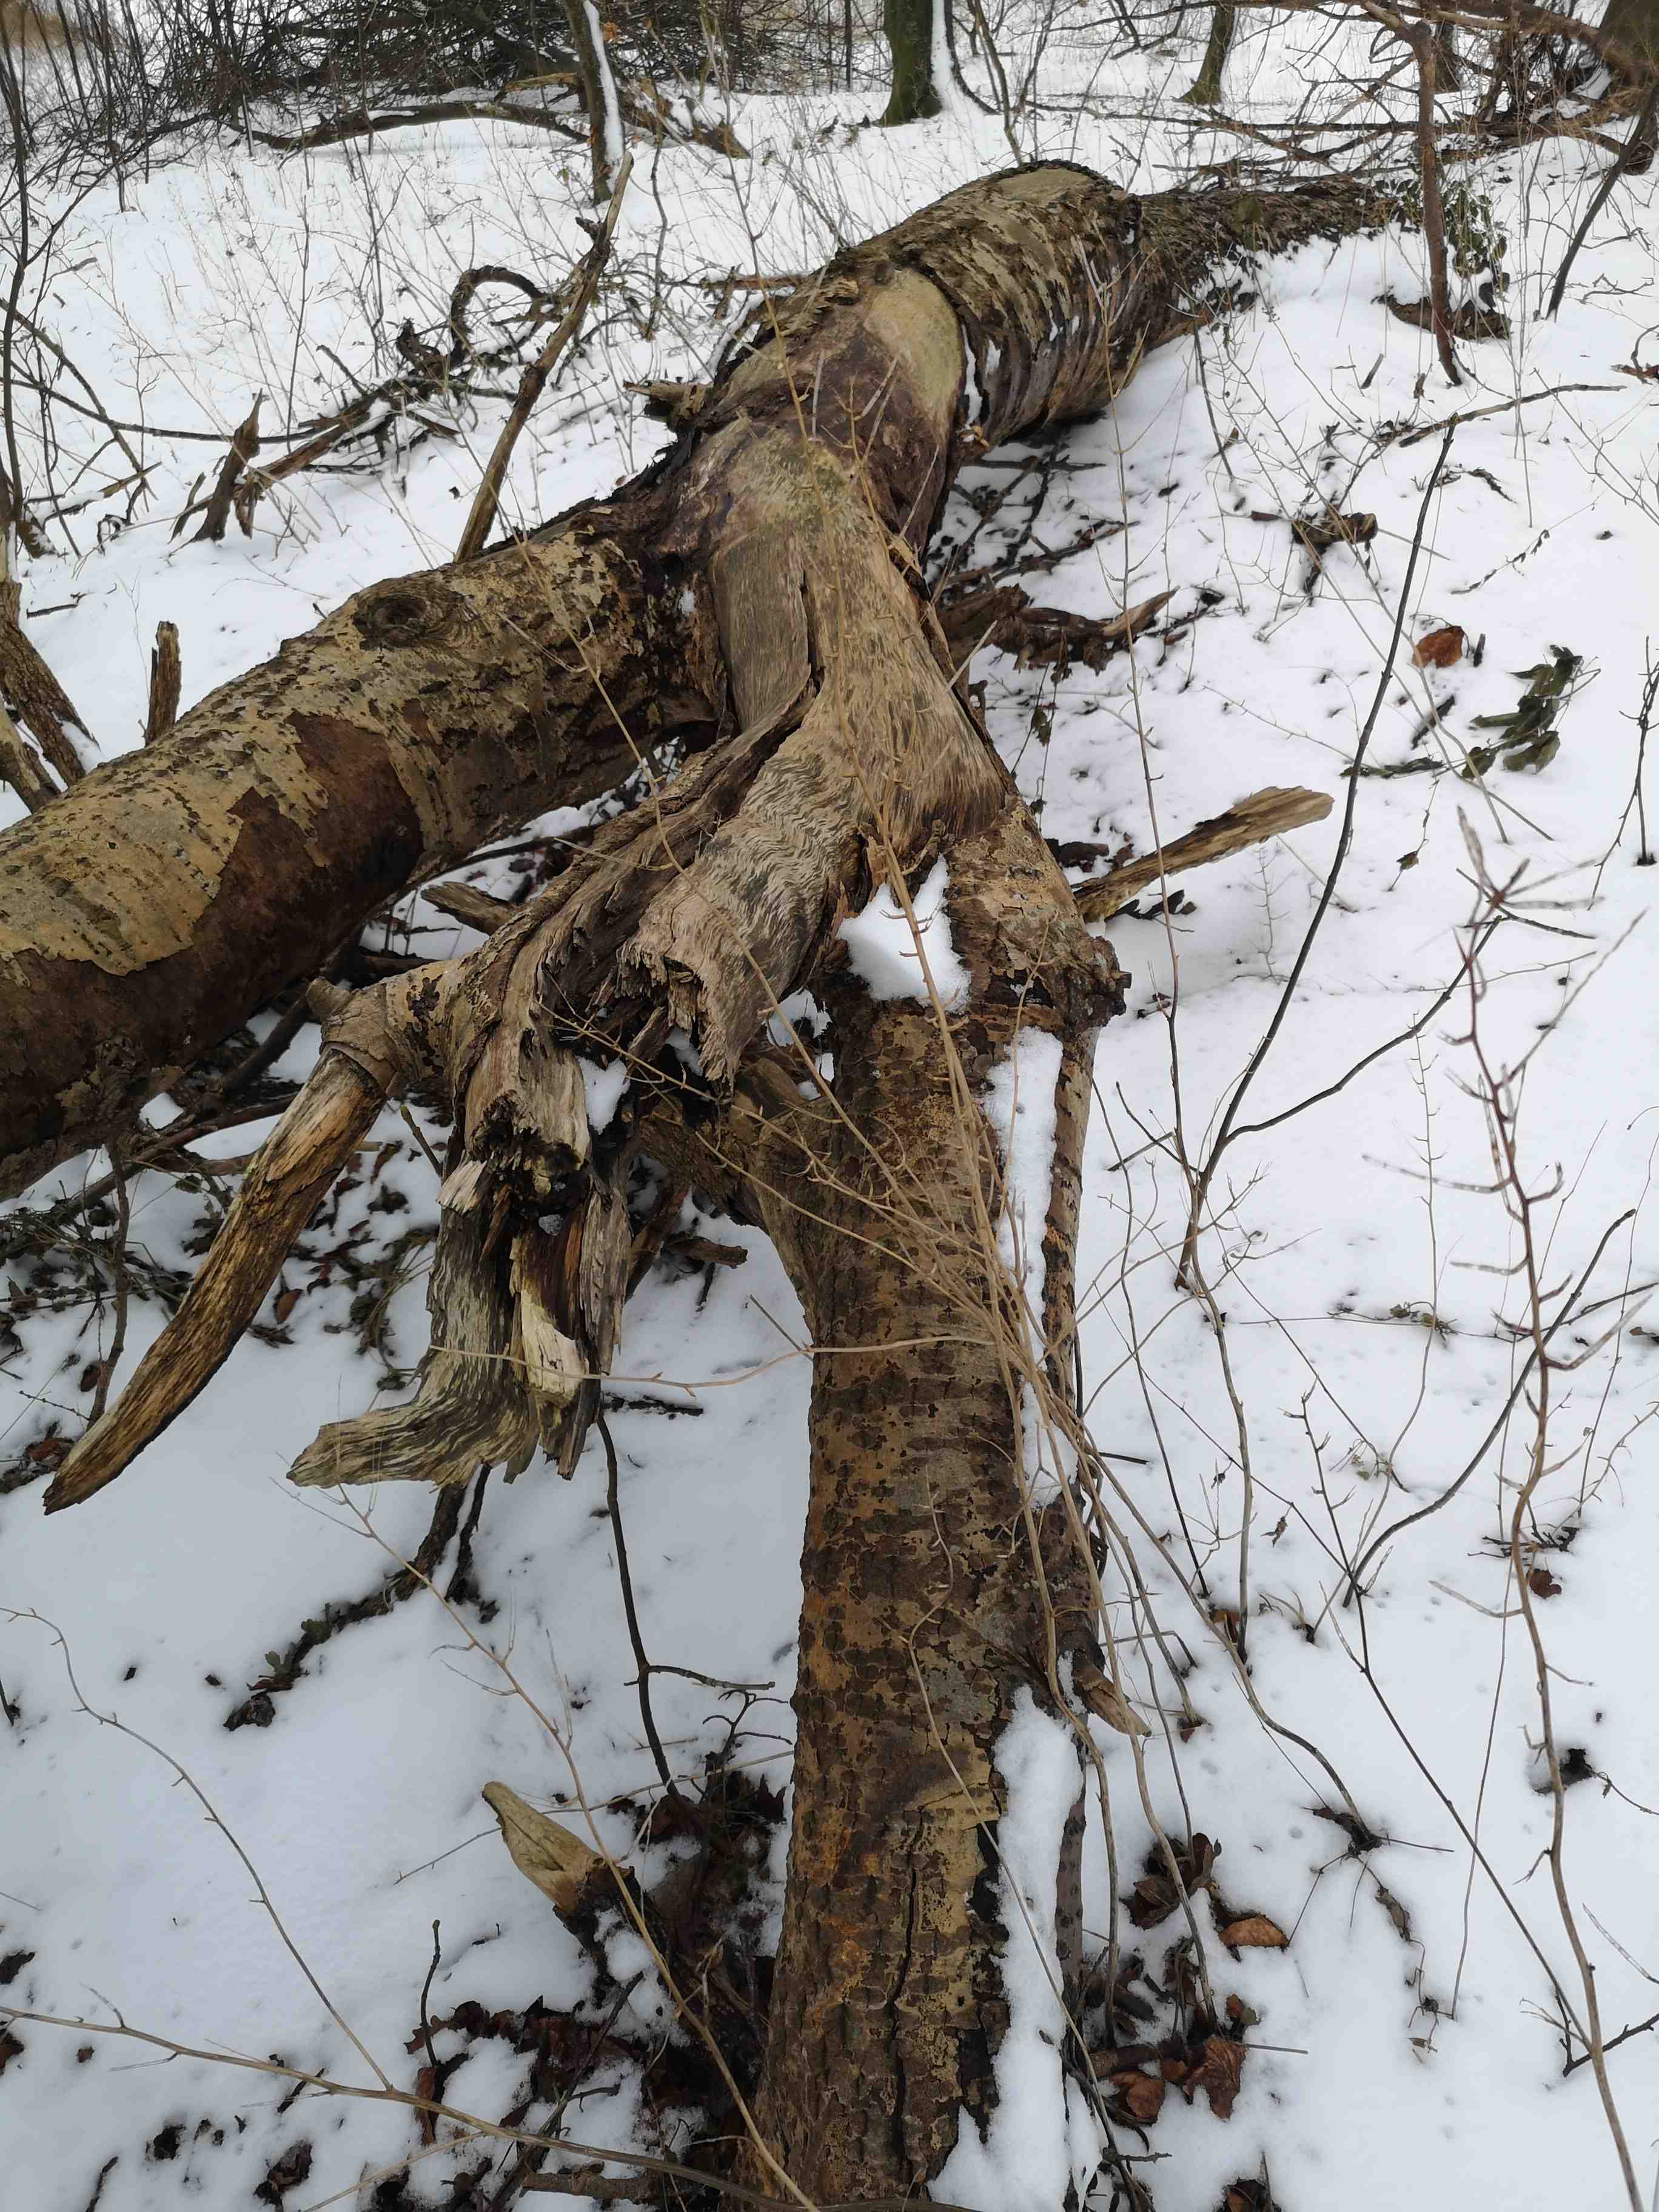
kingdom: Fungi
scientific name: Fungi
